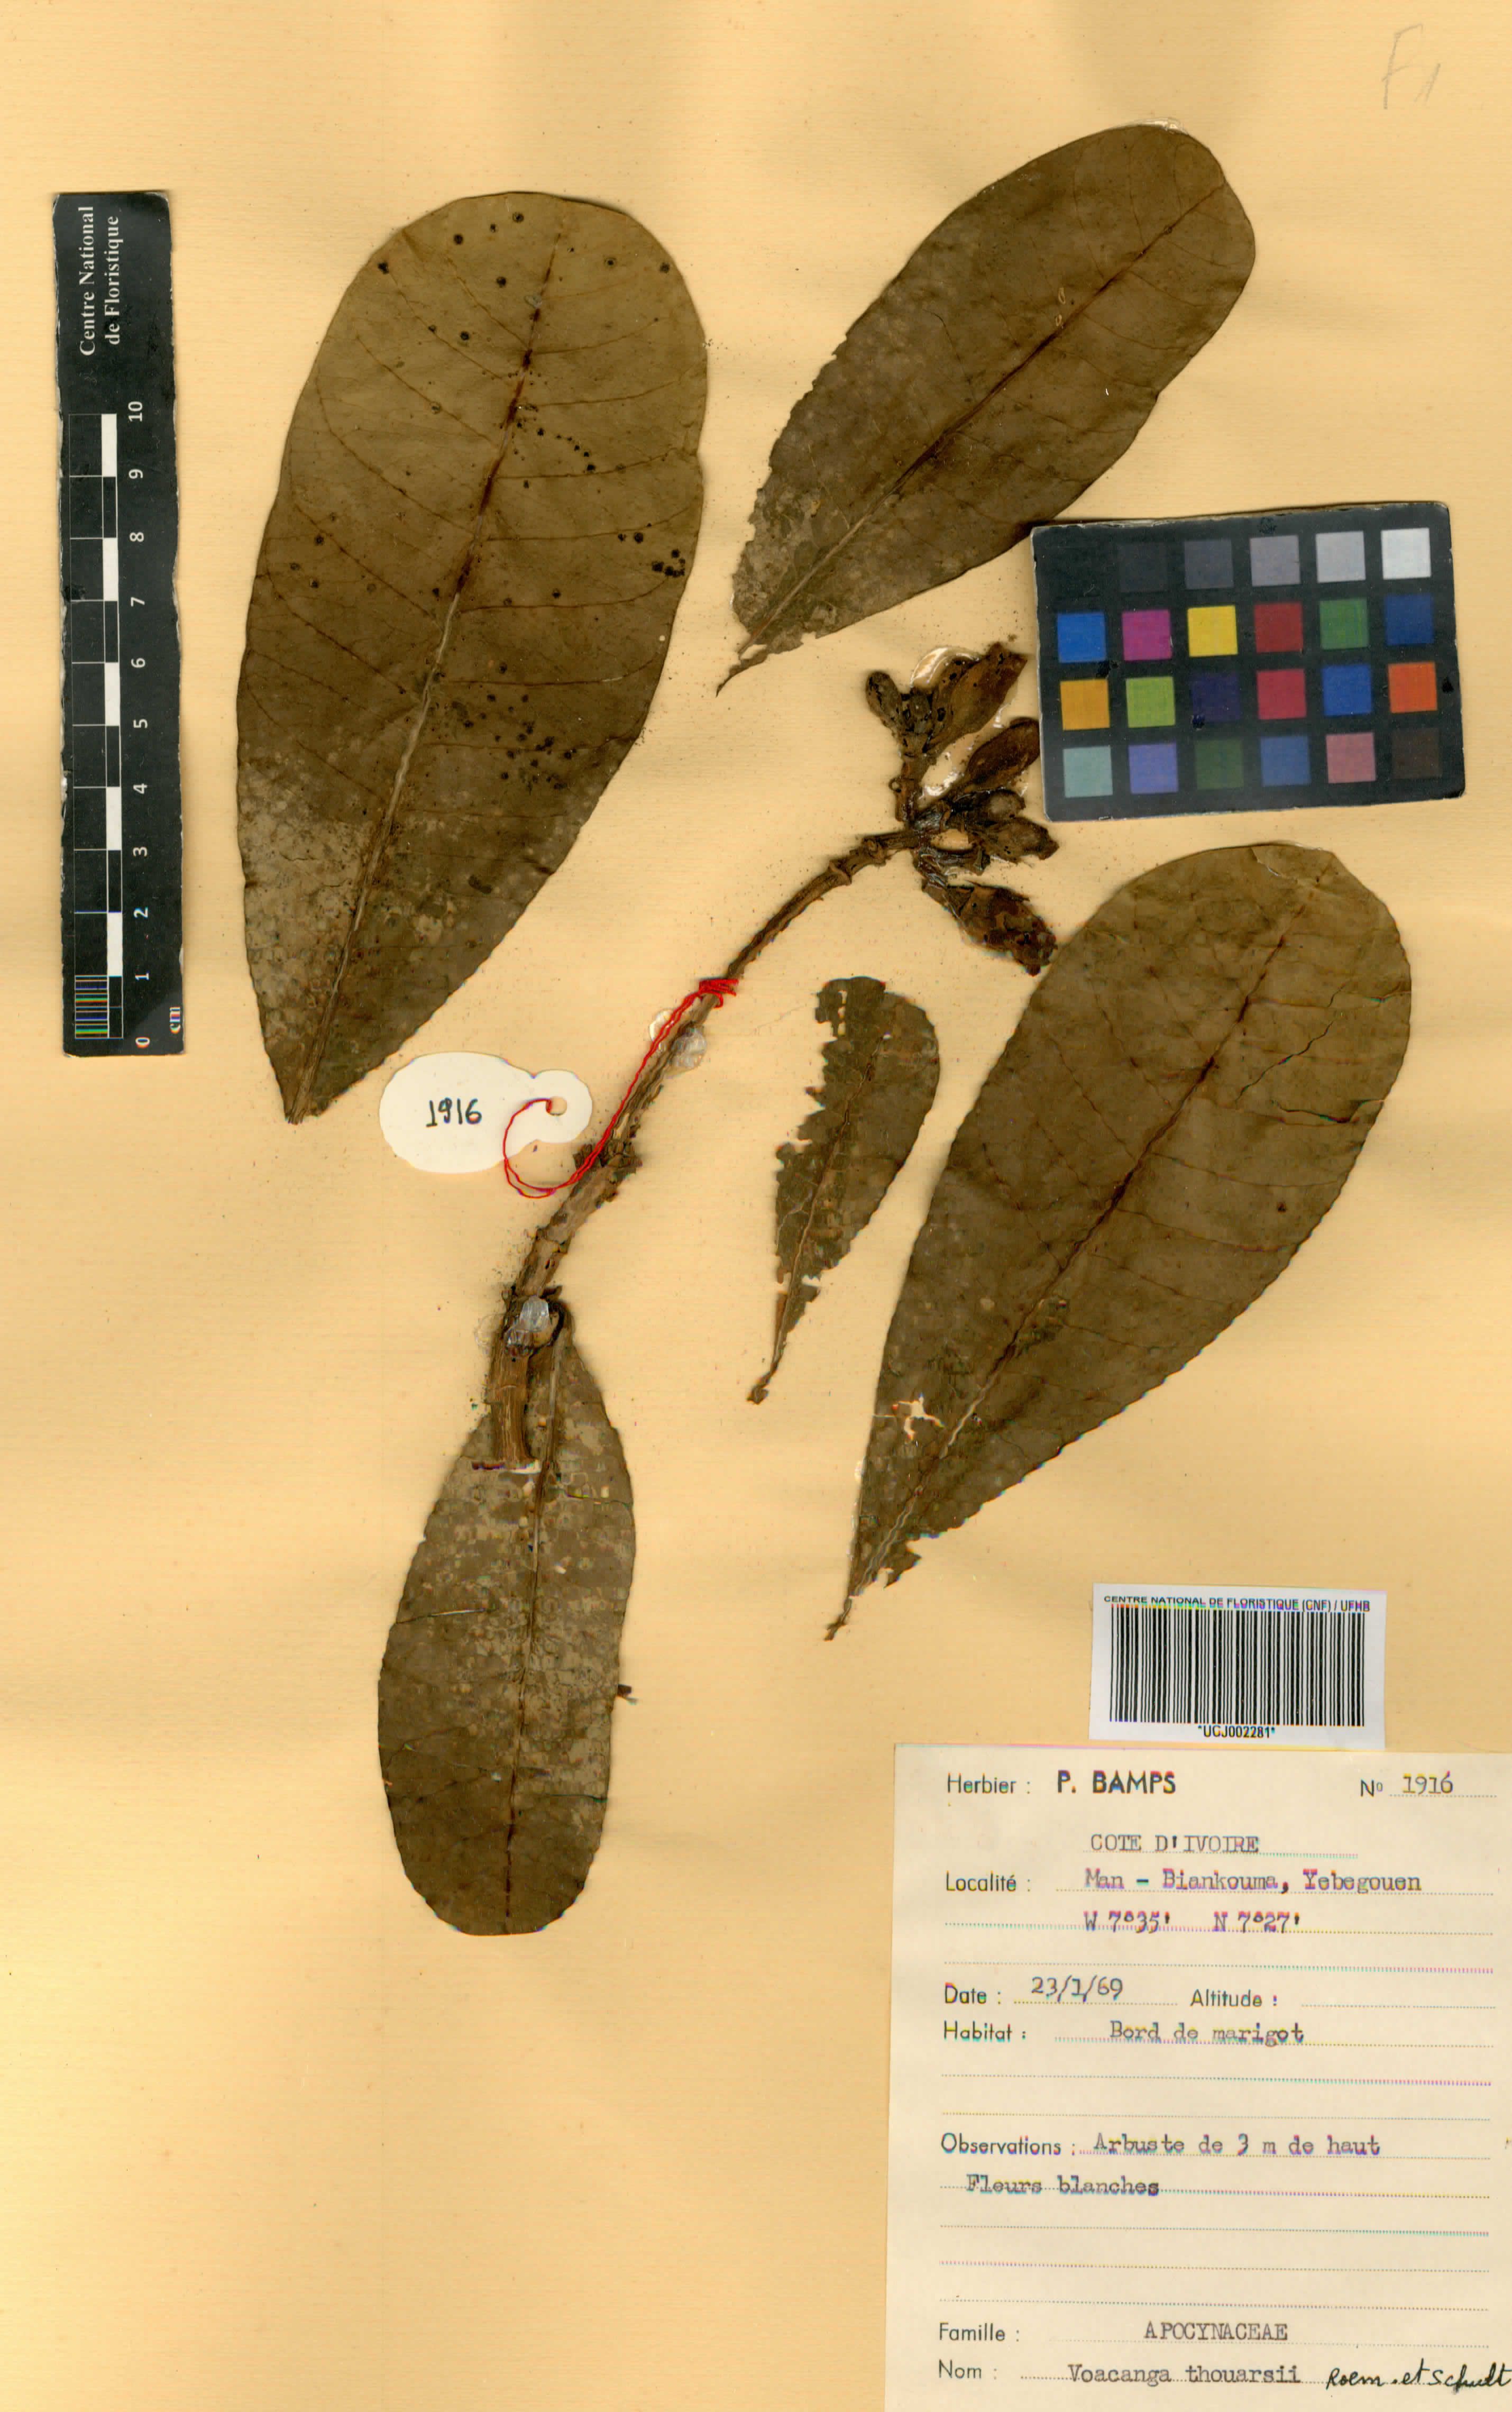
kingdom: Plantae
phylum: Tracheophyta
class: Magnoliopsida
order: Gentianales
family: Apocynaceae
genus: Voacanga
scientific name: Voacanga thouarsii
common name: Wild frangipani
